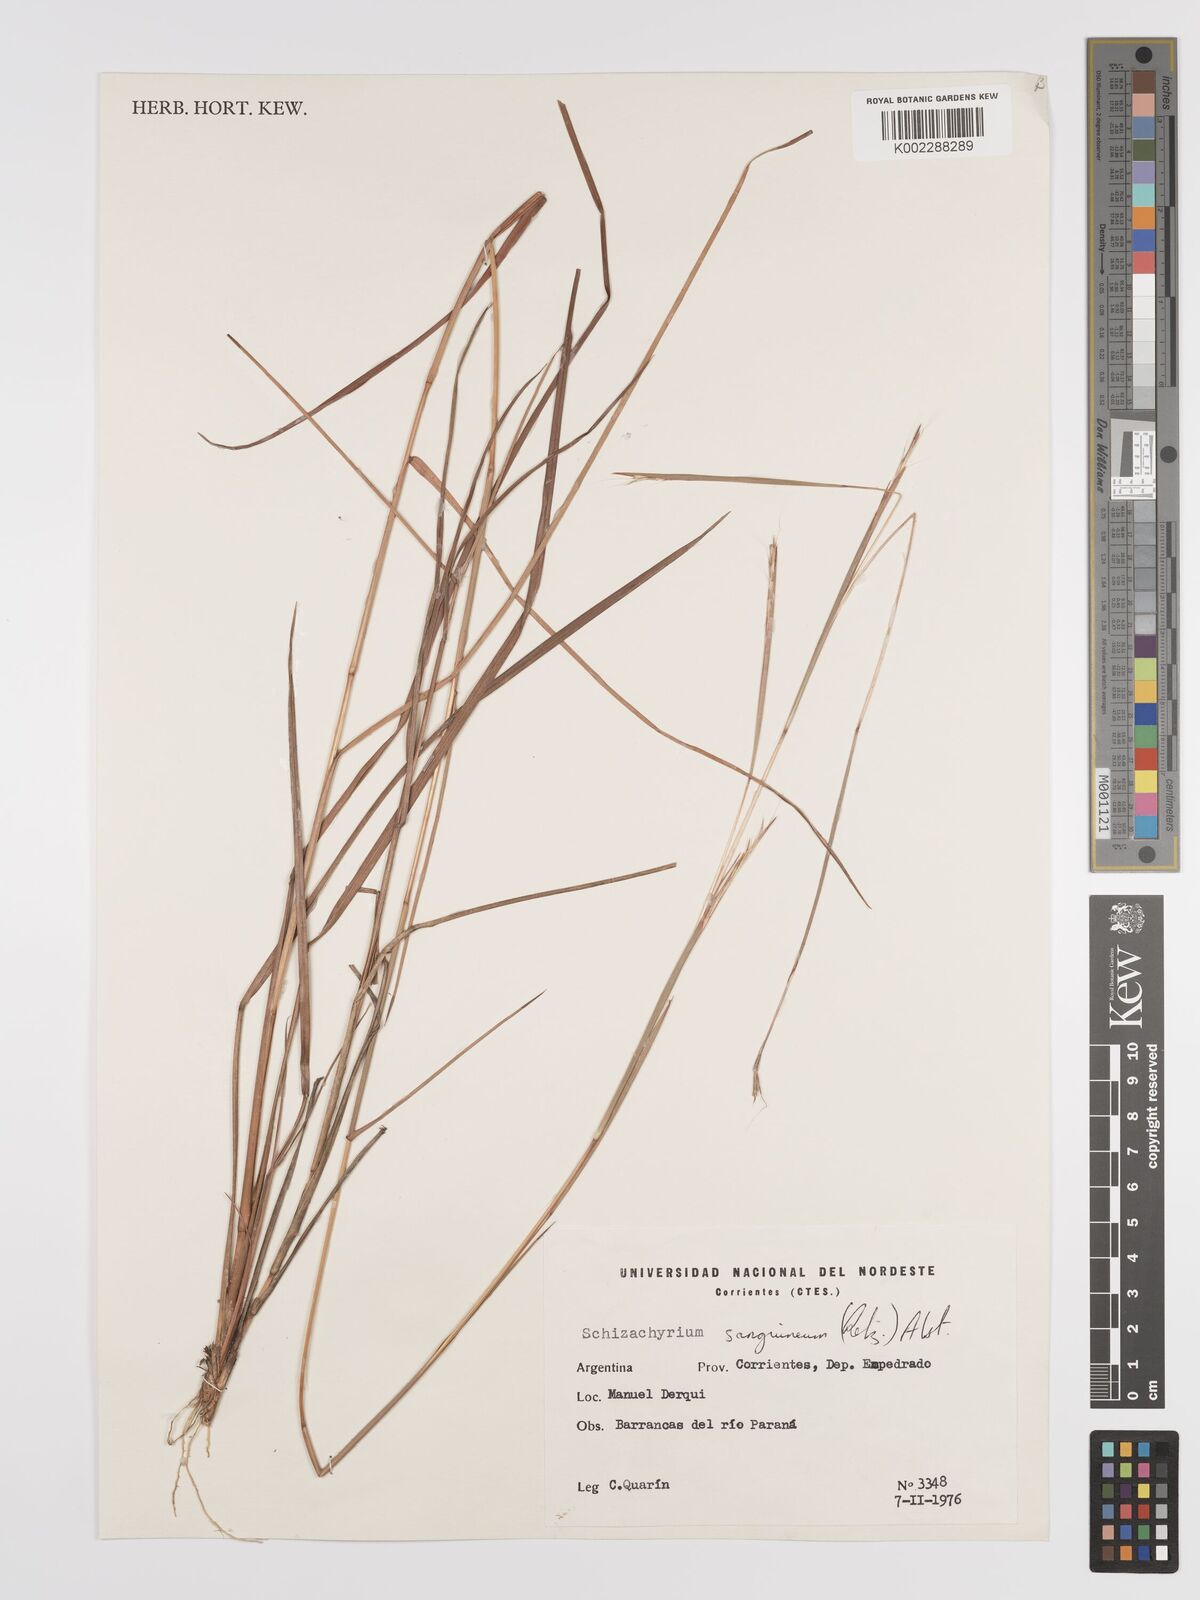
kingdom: Plantae
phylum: Tracheophyta
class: Liliopsida
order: Poales
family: Poaceae
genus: Schizachyrium
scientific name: Schizachyrium sanguineum
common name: Crimson bluestem
